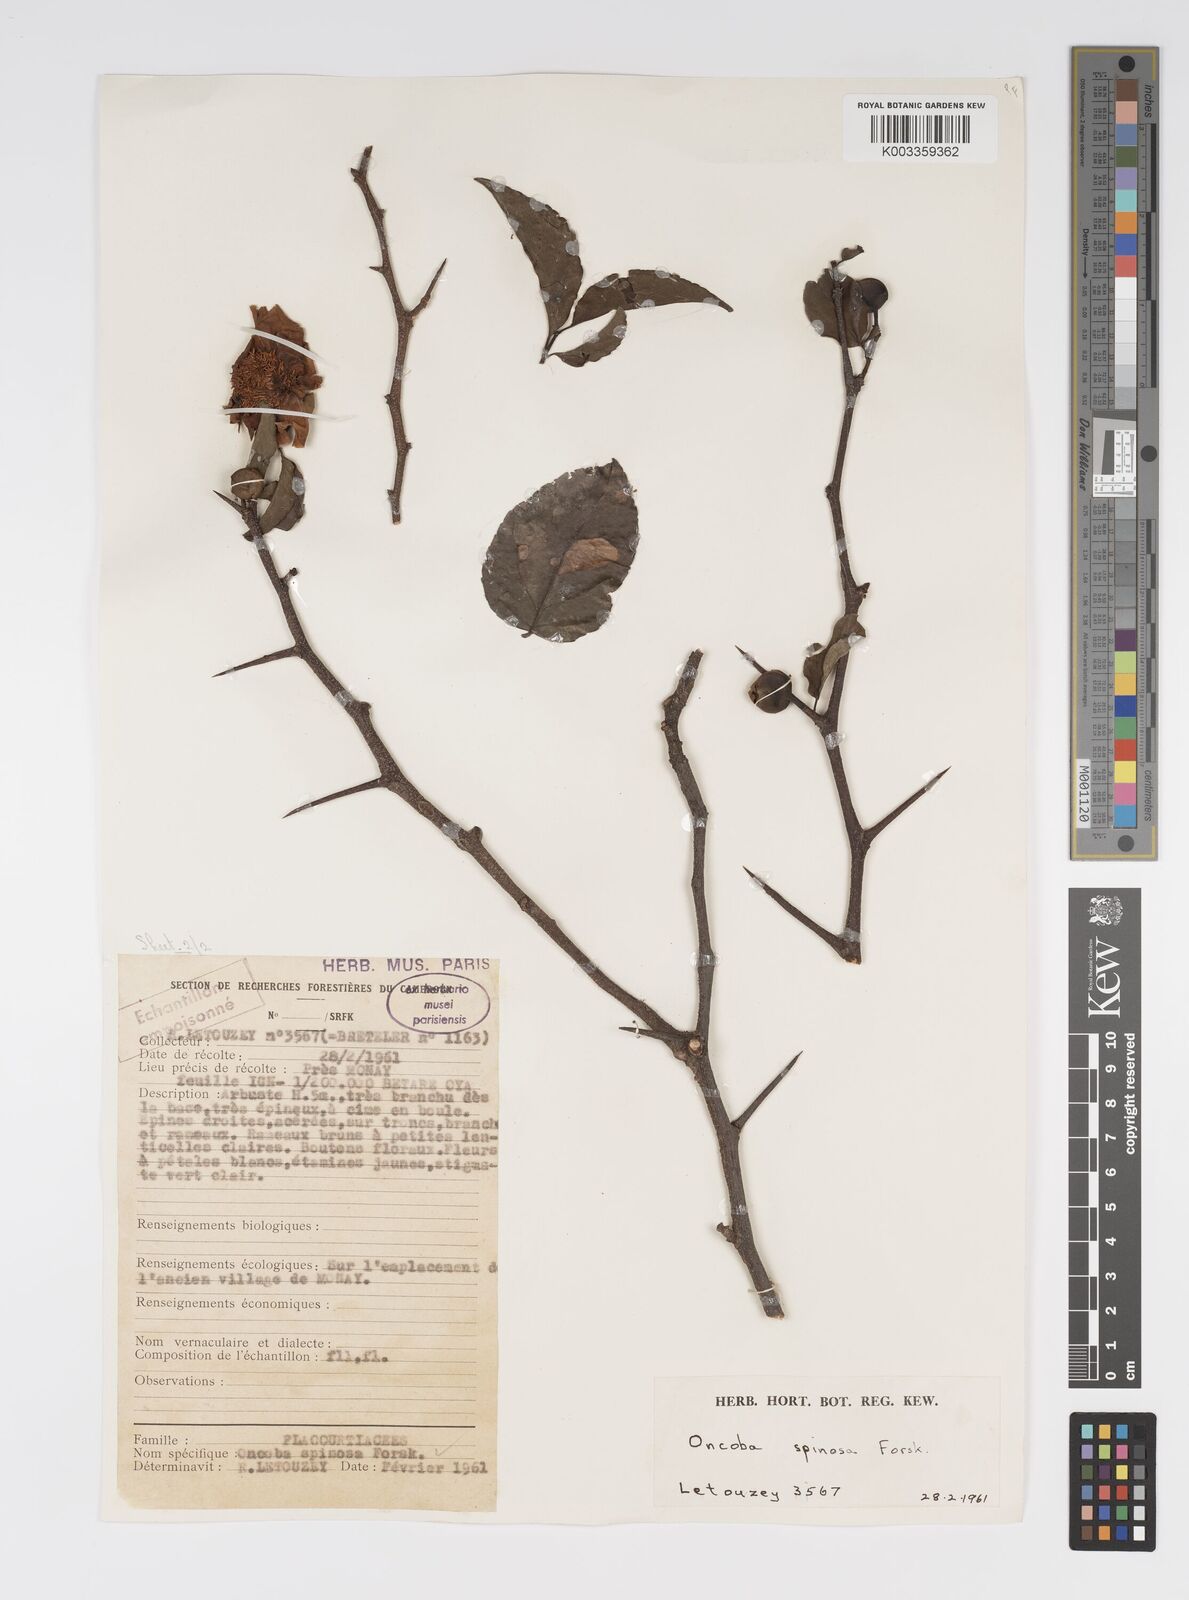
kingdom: Plantae
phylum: Tracheophyta
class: Magnoliopsida
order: Malpighiales
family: Salicaceae
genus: Oncoba
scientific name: Oncoba spinosa
